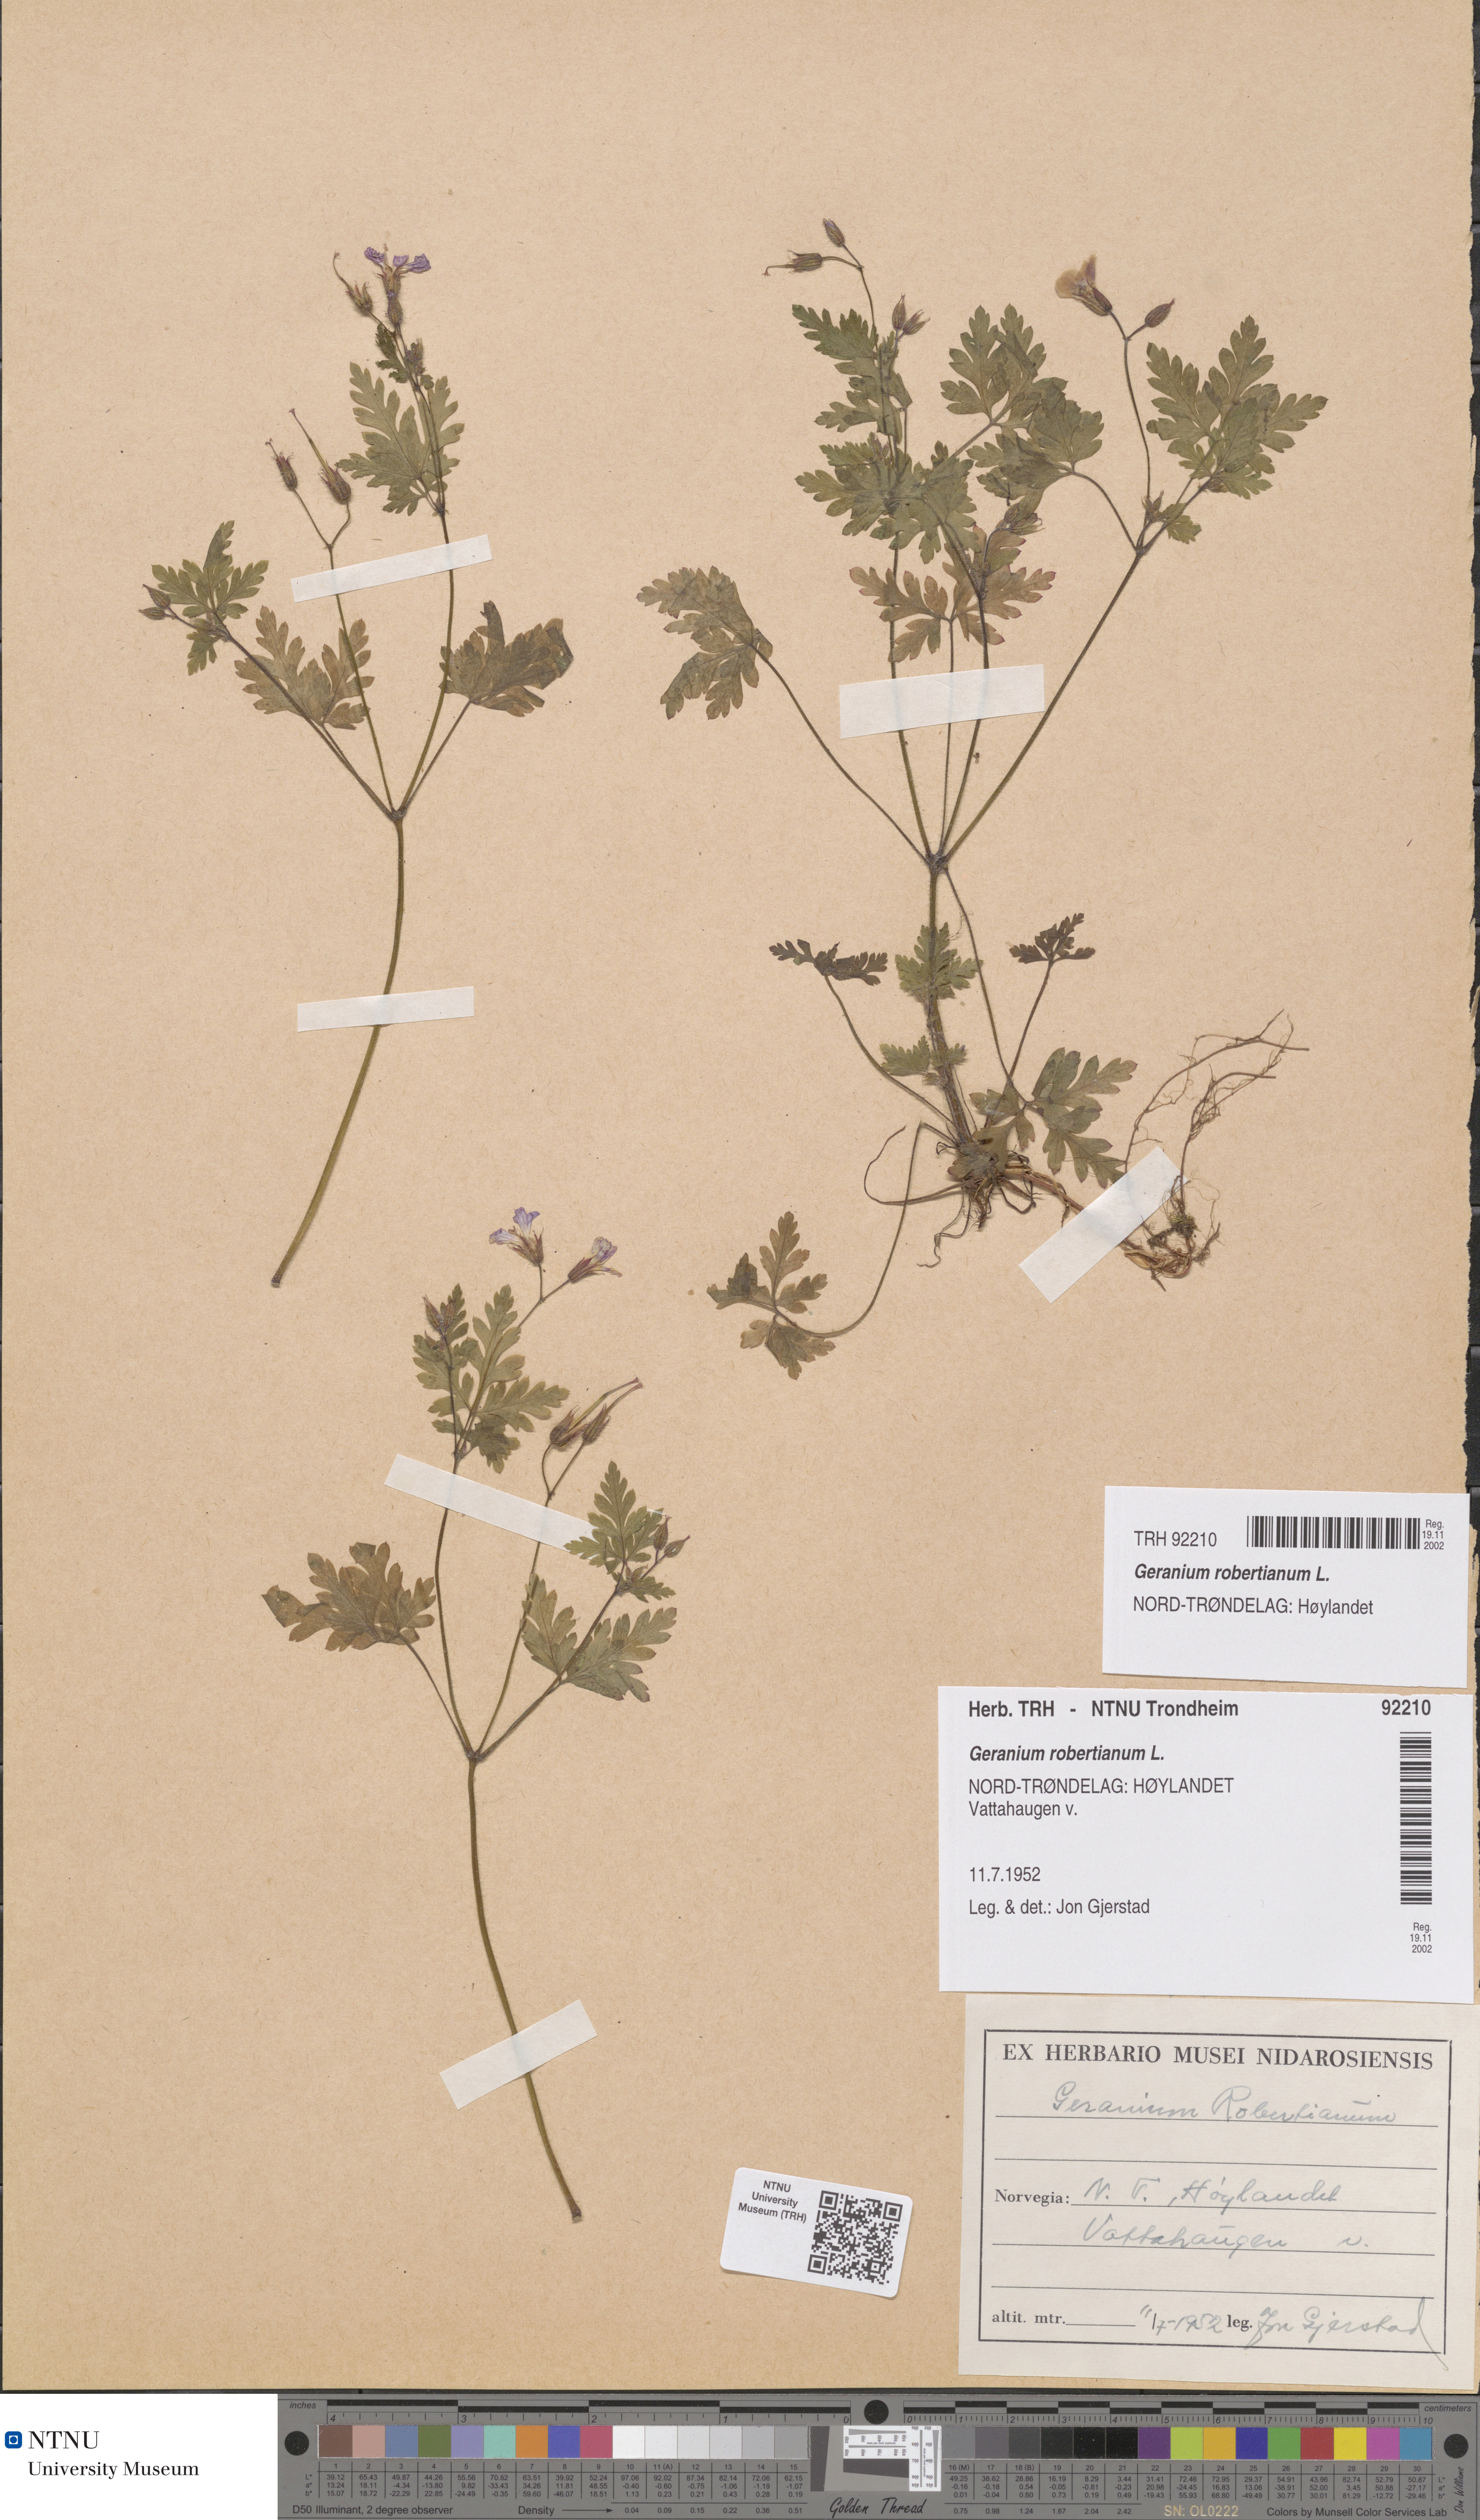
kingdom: Plantae
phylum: Tracheophyta
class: Magnoliopsida
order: Geraniales
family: Geraniaceae
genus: Geranium
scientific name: Geranium robertianum
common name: Herb-robert
